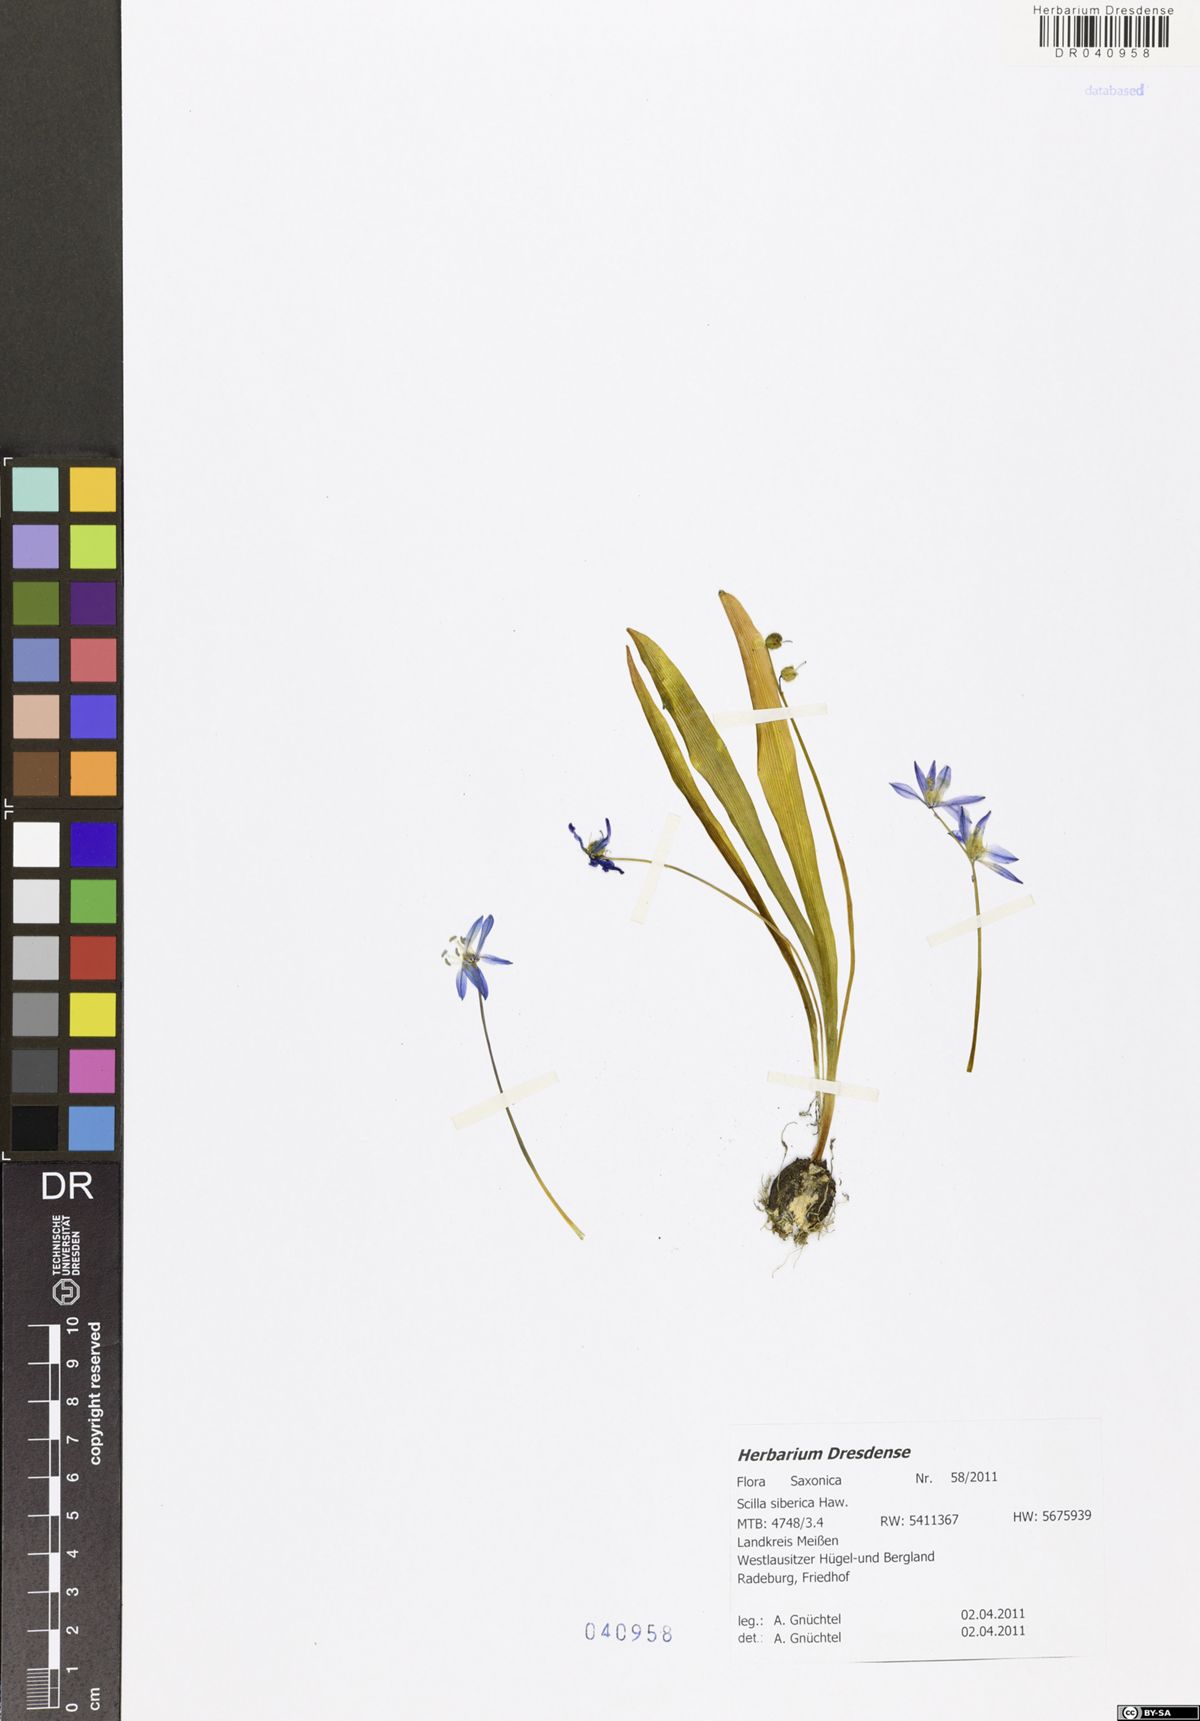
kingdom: Plantae
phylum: Tracheophyta
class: Liliopsida
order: Asparagales
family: Asparagaceae
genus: Scilla
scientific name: Scilla siberica
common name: Siberian squill
